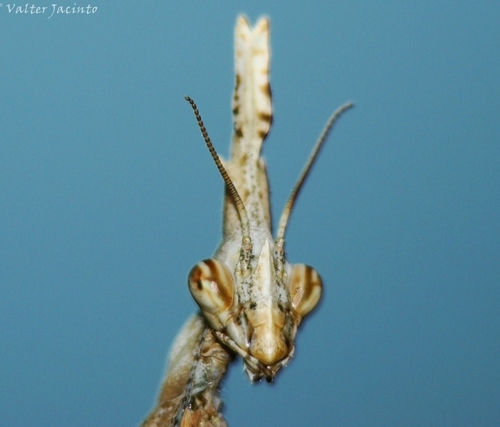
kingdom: Animalia
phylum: Arthropoda
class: Insecta
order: Mantodea
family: Empusidae
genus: Empusa
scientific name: Empusa pennata
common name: Conehead mantis
